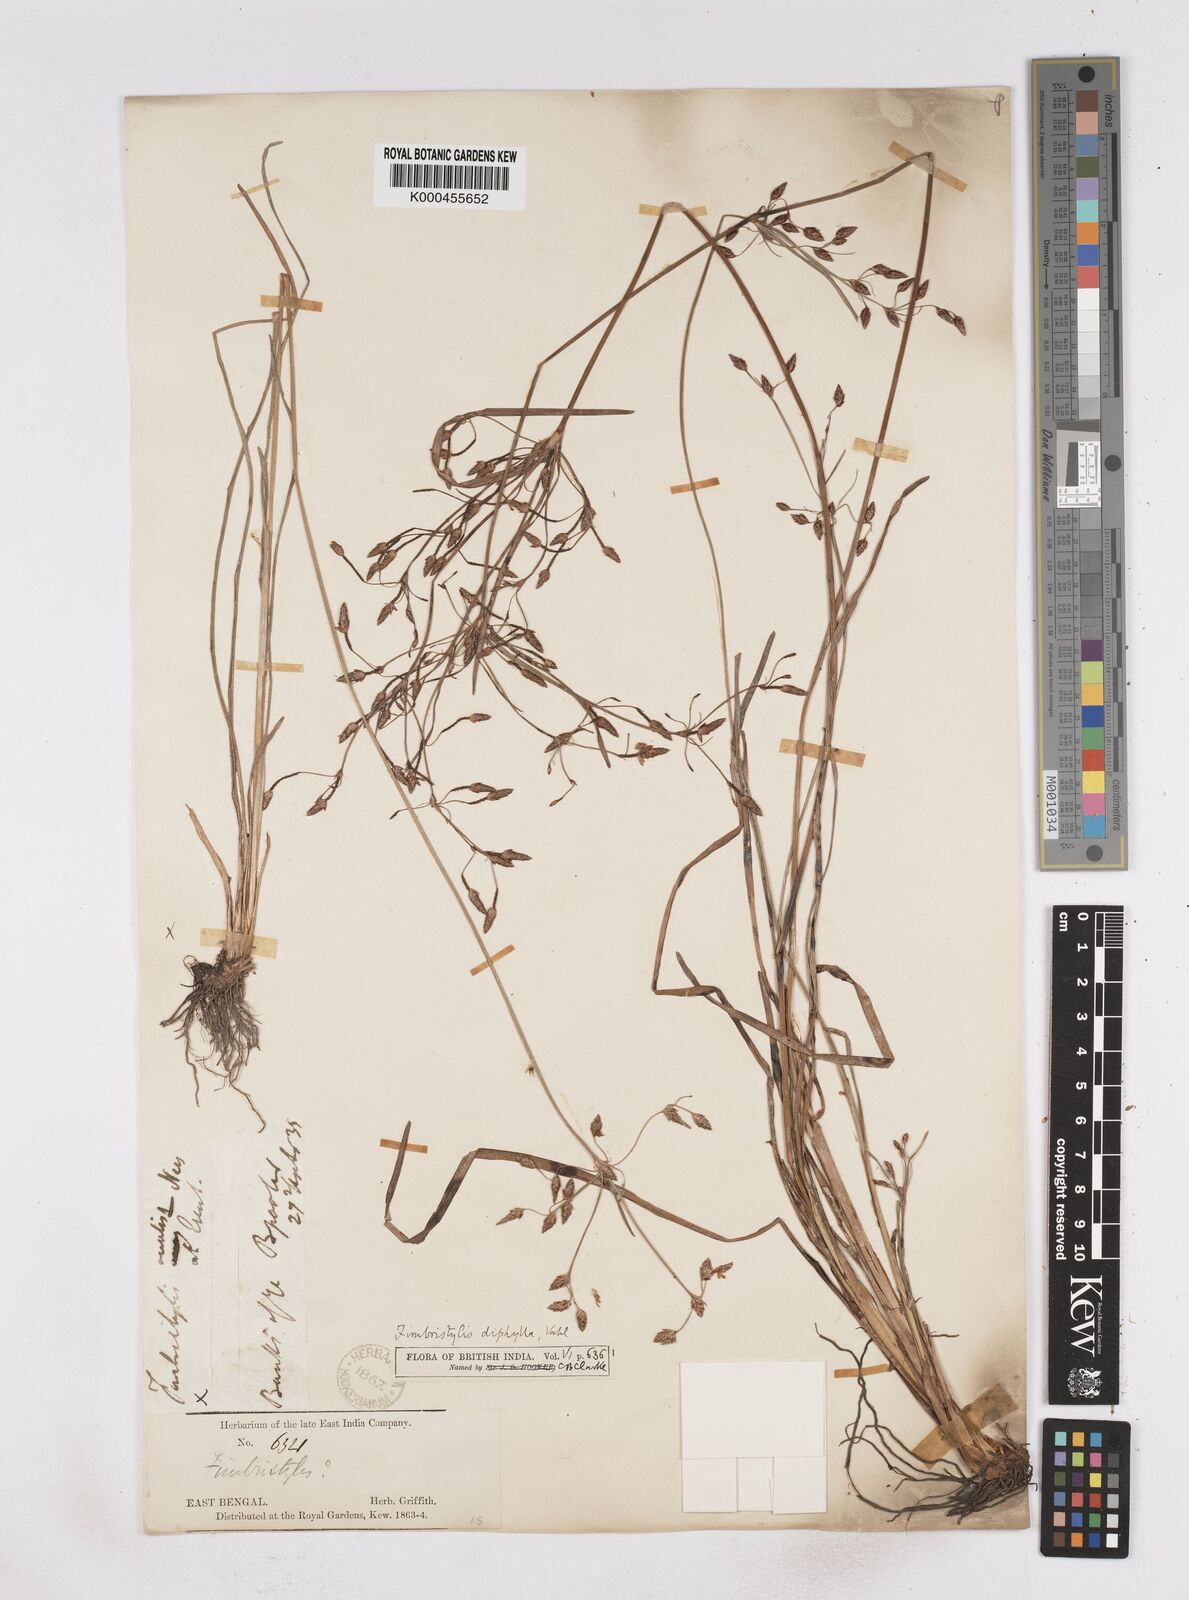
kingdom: Plantae
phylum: Tracheophyta
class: Liliopsida
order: Poales
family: Cyperaceae
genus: Fimbristylis
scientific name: Fimbristylis dichotoma
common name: Forked fimbry
